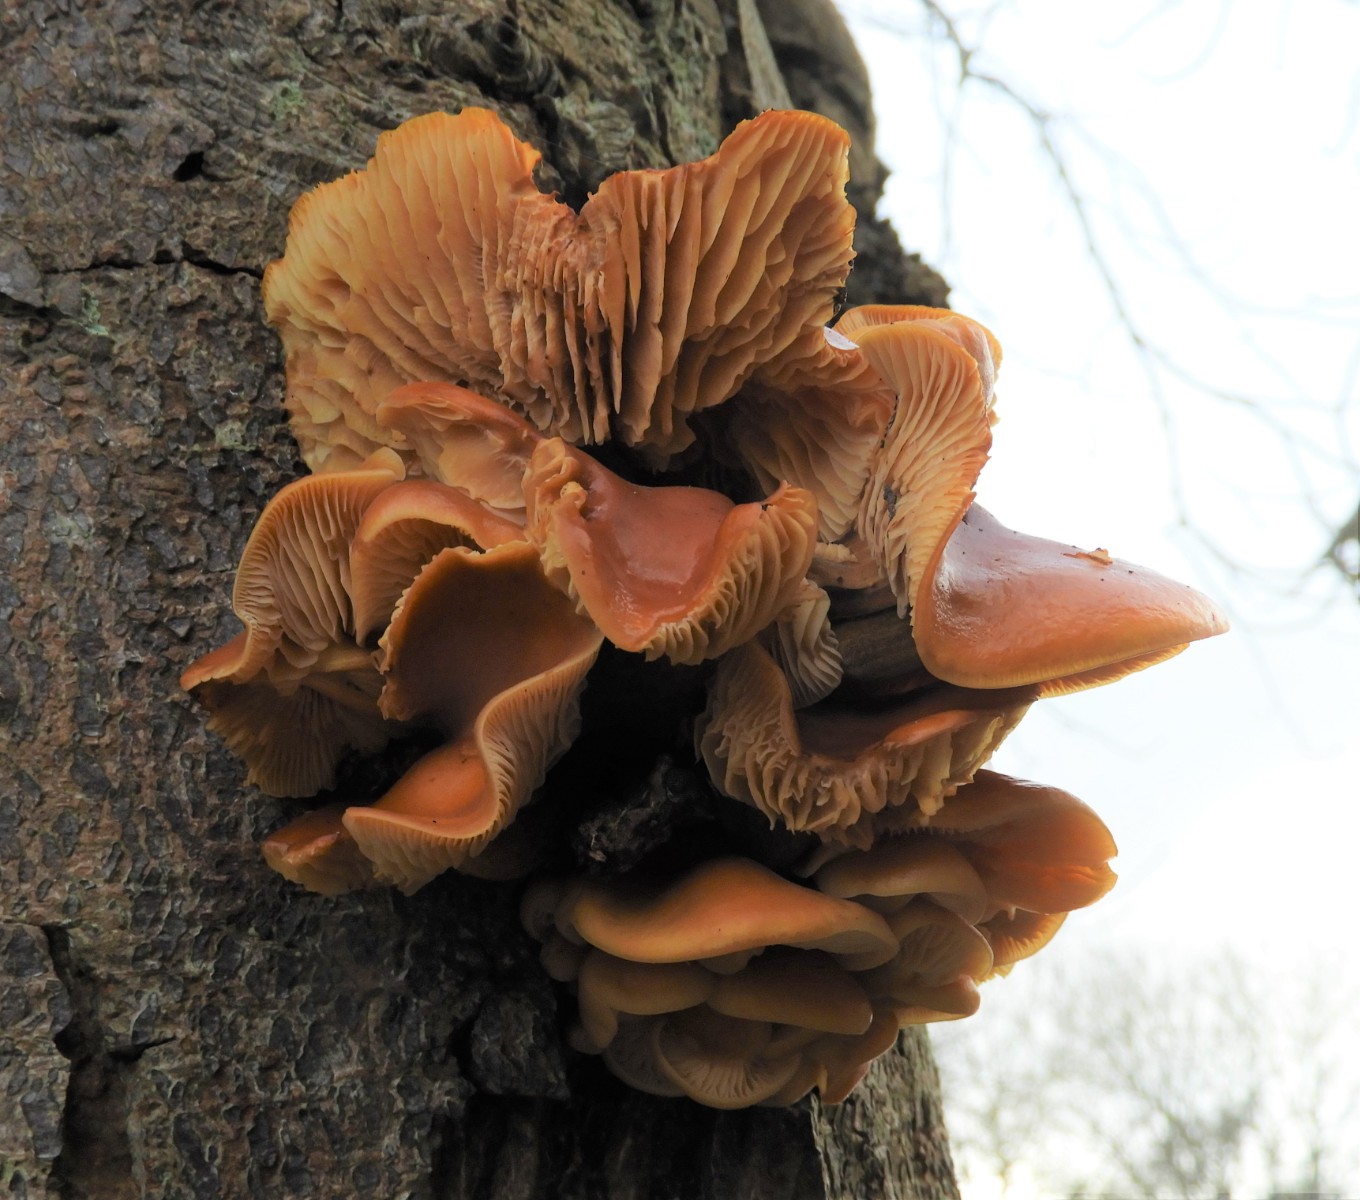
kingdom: Fungi
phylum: Basidiomycota
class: Agaricomycetes
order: Agaricales
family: Physalacriaceae
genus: Flammulina
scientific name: Flammulina velutipes
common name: gul fløjlsfod
